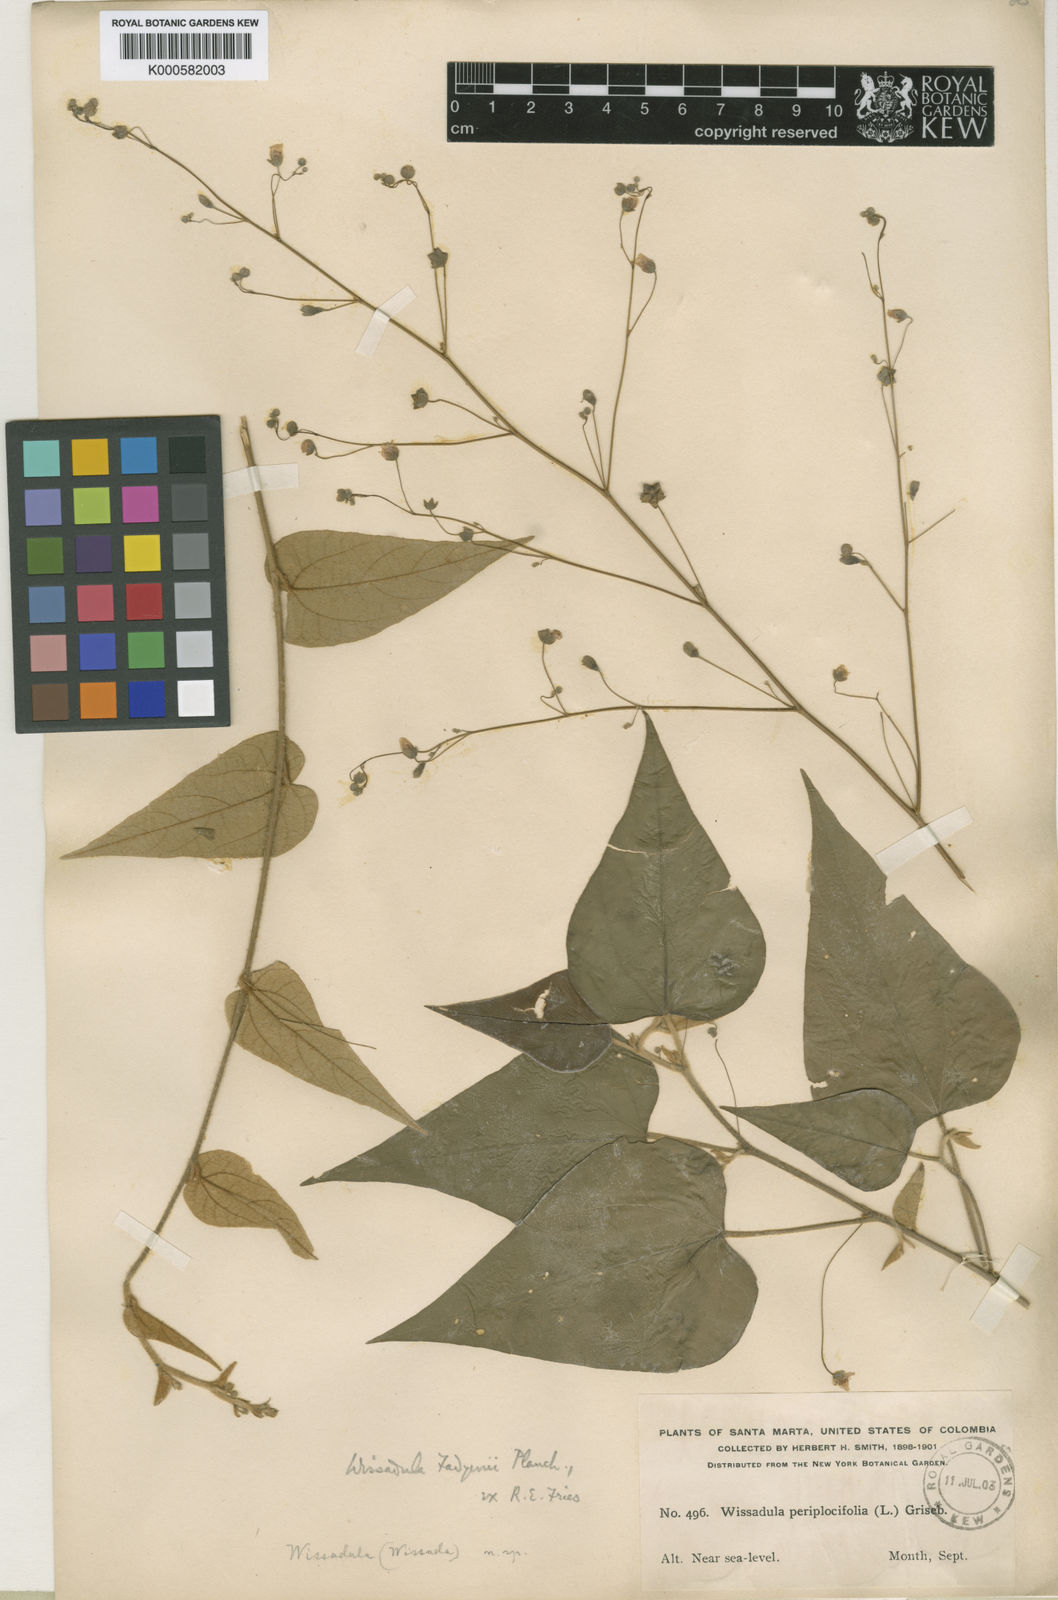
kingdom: Plantae
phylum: Tracheophyta
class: Magnoliopsida
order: Malvales
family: Malvaceae
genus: Wissadula
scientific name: Wissadula fadyenii
